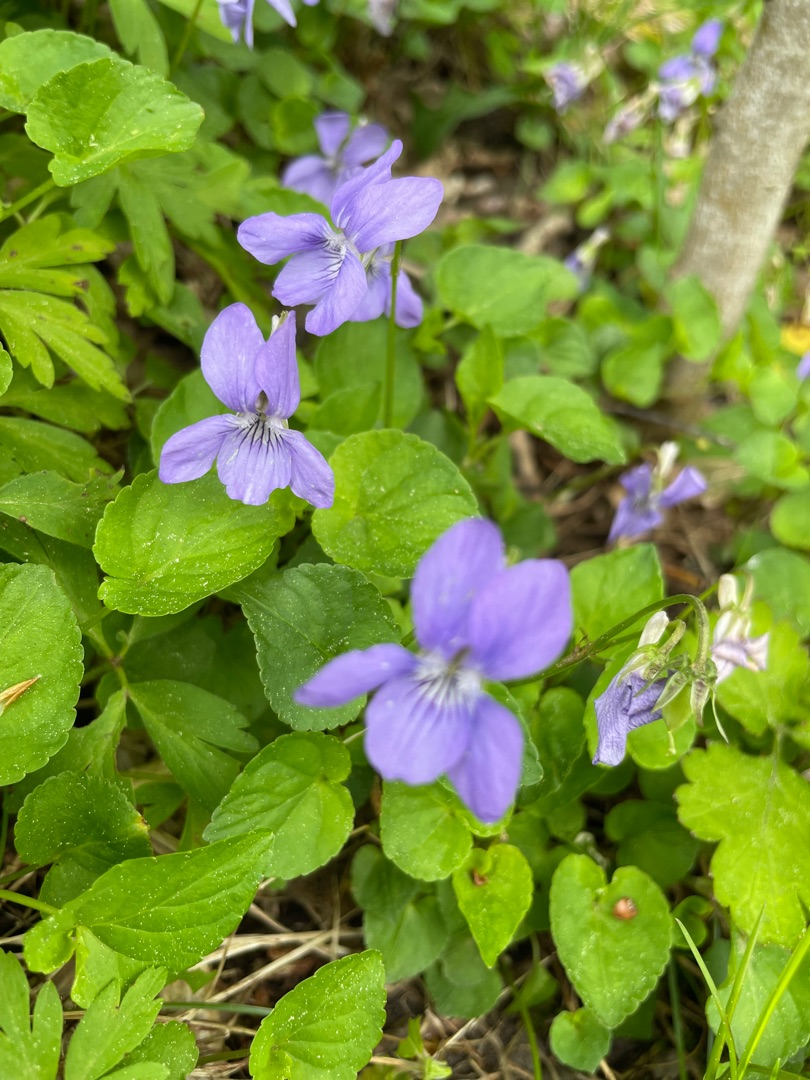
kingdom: Plantae
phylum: Tracheophyta
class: Magnoliopsida
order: Malpighiales
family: Violaceae
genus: Viola
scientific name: Viola riviniana
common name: Krat-viol
